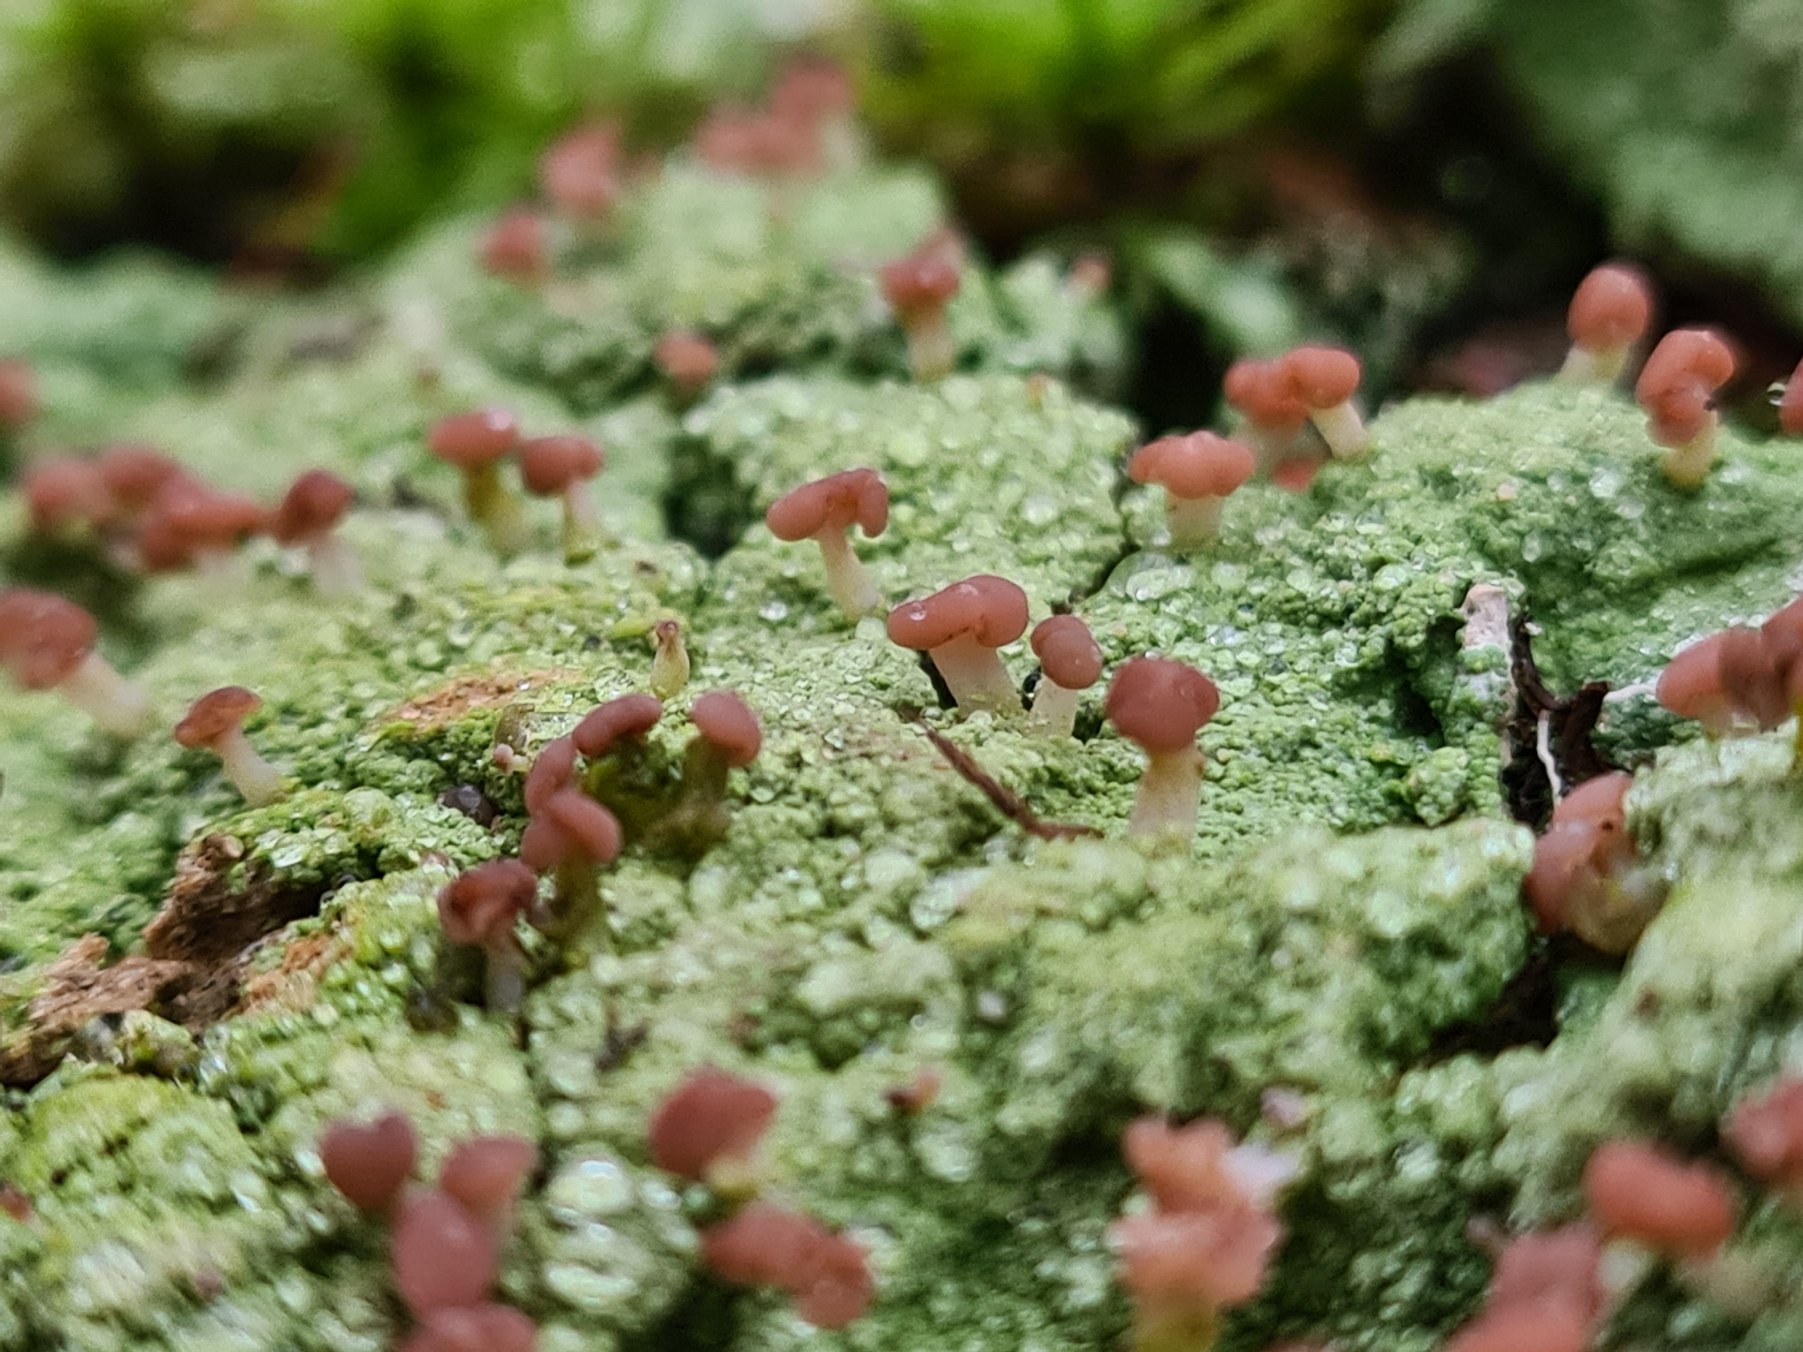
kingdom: Fungi
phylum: Ascomycota
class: Lecanoromycetes
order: Baeomycetales
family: Baeomycetaceae
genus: Baeomyces
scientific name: Baeomyces rufus
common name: Rødbrun svampelav
